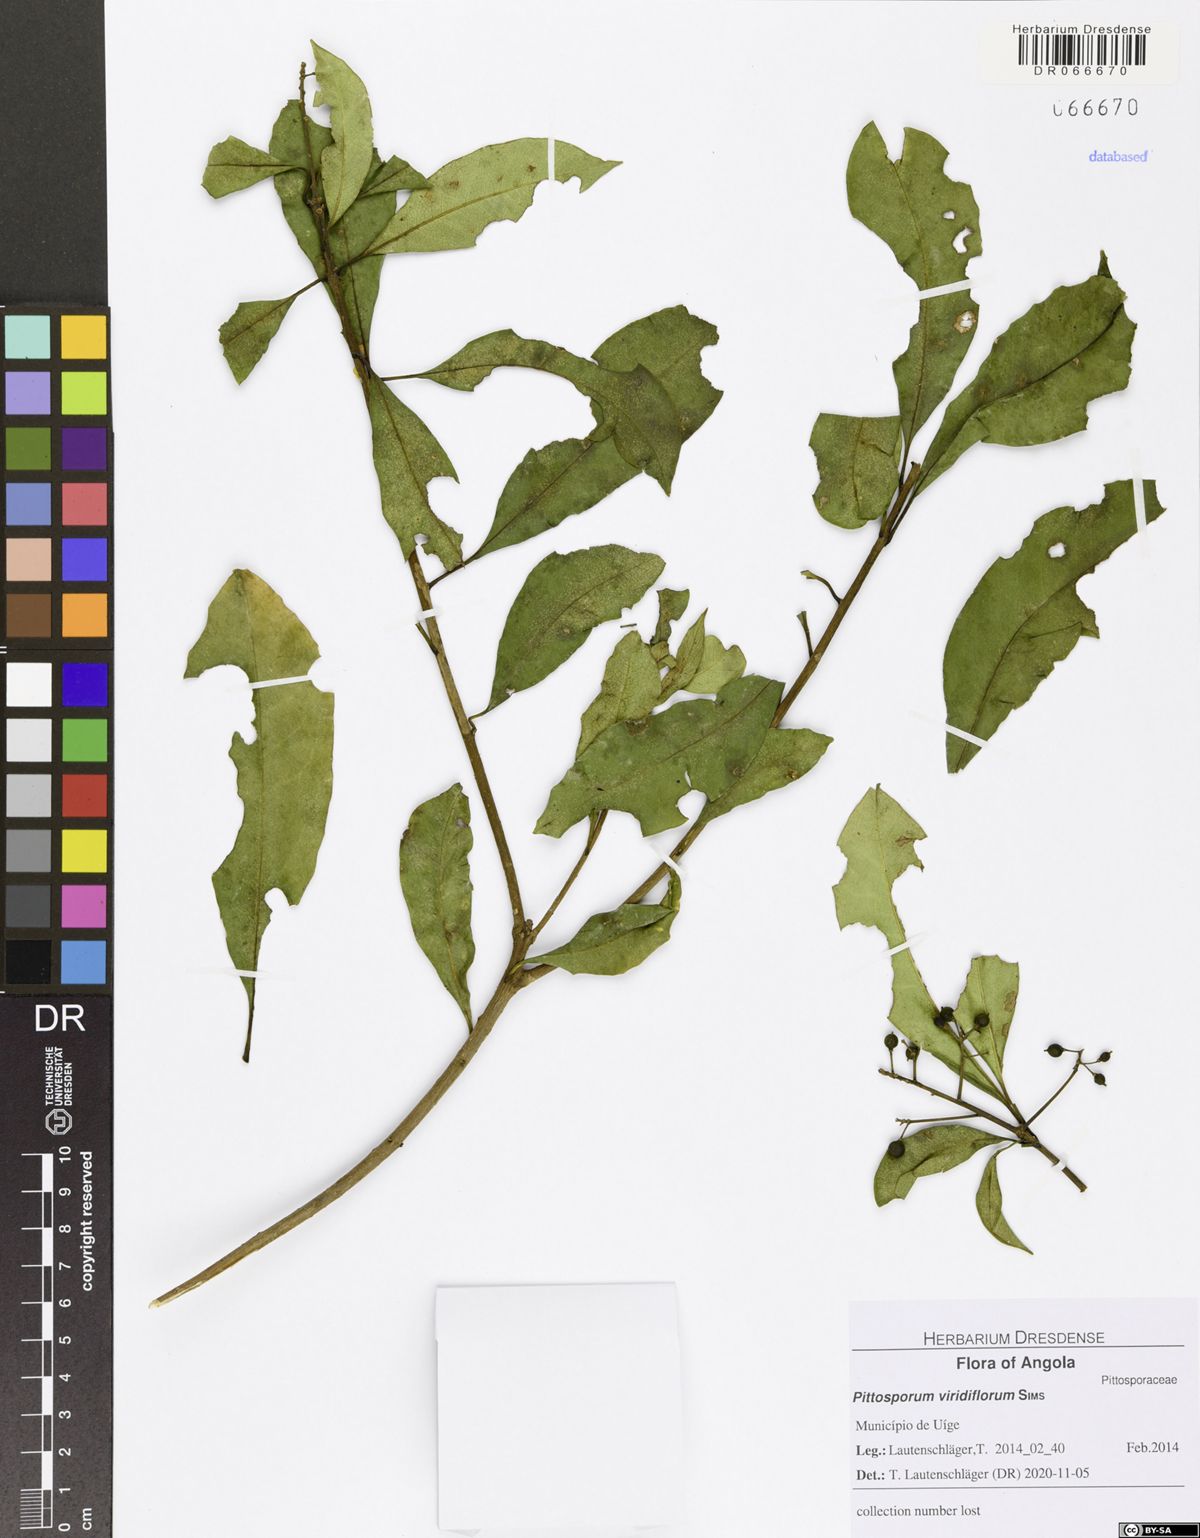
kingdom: Plantae
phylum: Tracheophyta
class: Magnoliopsida
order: Apiales
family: Pittosporaceae
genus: Pittosporum
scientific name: Pittosporum viridiflorum
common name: Cape cheesewood
